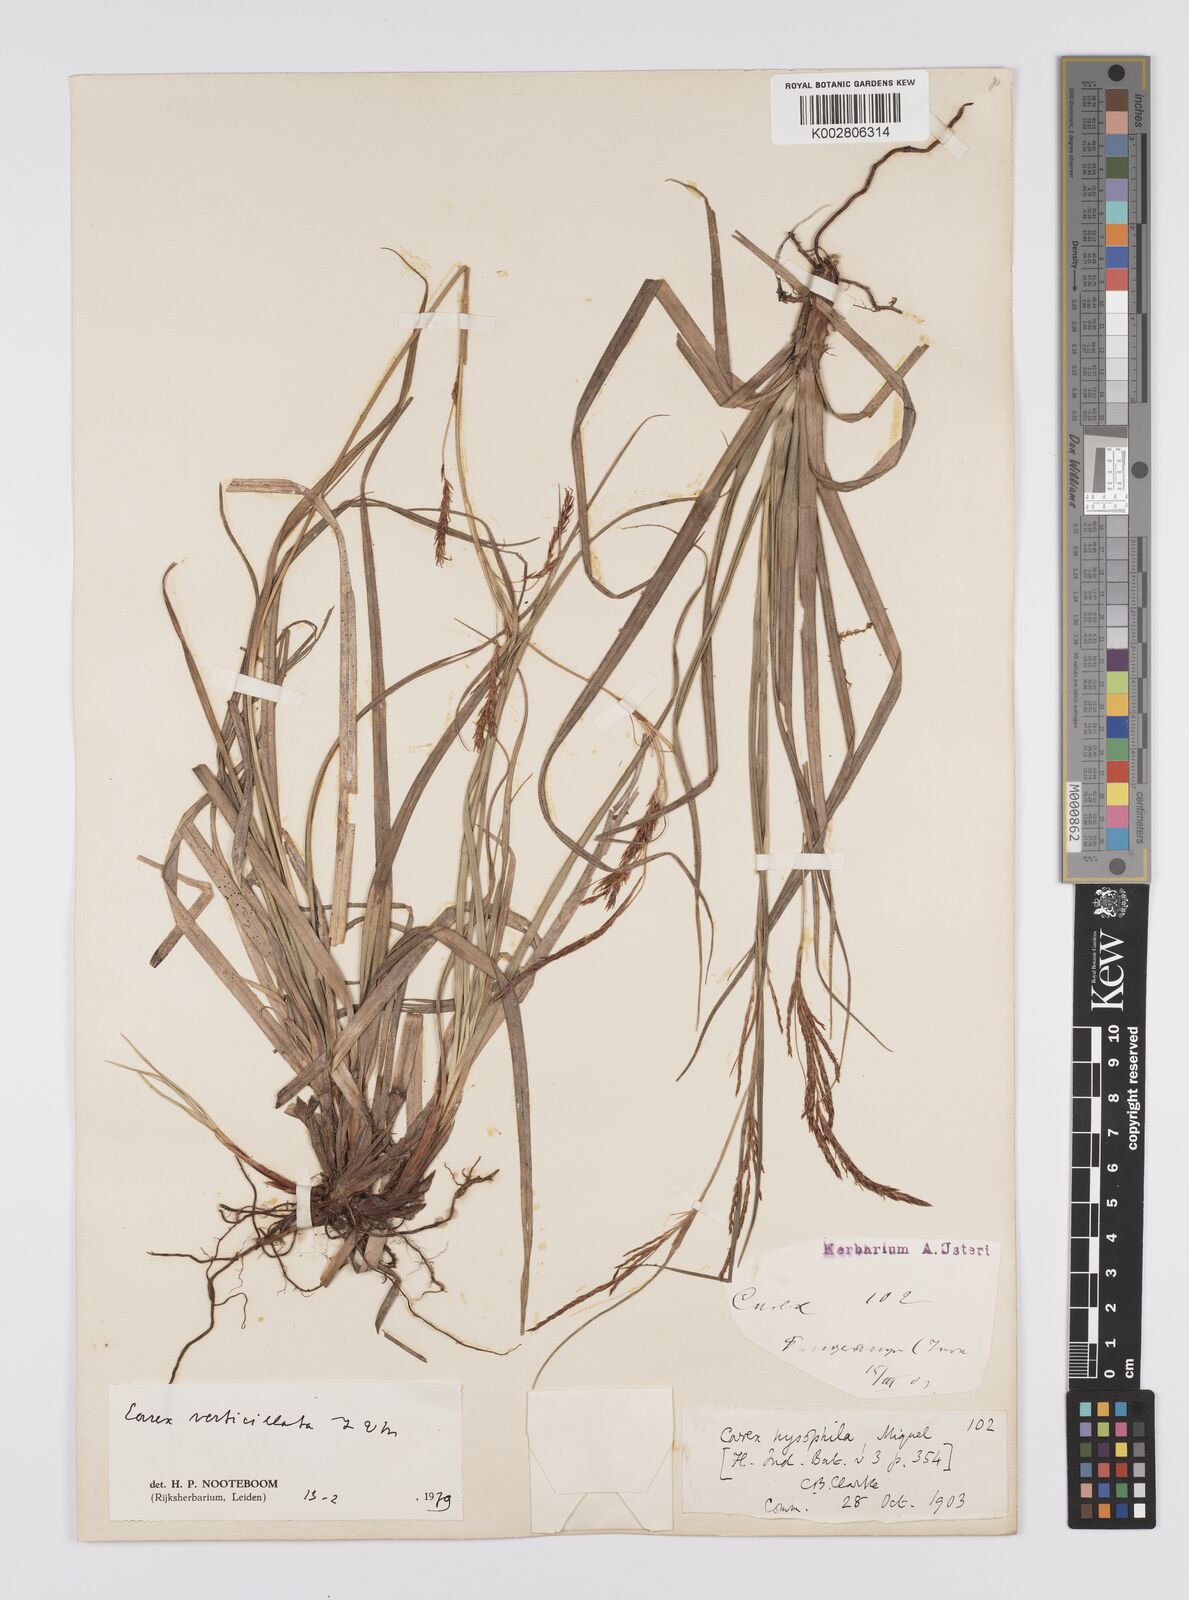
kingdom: Plantae
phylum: Tracheophyta
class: Liliopsida
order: Poales
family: Cyperaceae
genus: Carex
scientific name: Carex verticillata
